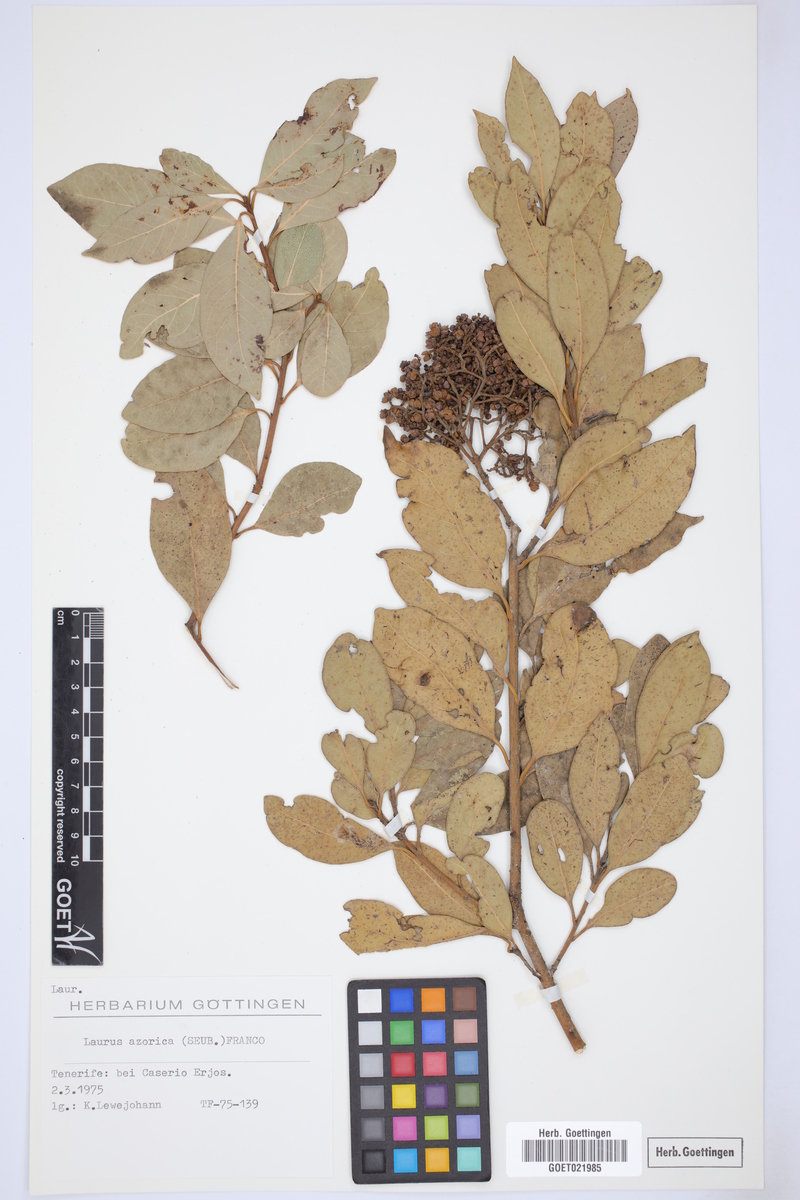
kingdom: Plantae
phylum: Tracheophyta
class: Magnoliopsida
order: Laurales
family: Lauraceae
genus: Laurus
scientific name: Laurus azorica
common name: Macaronesian laurel
